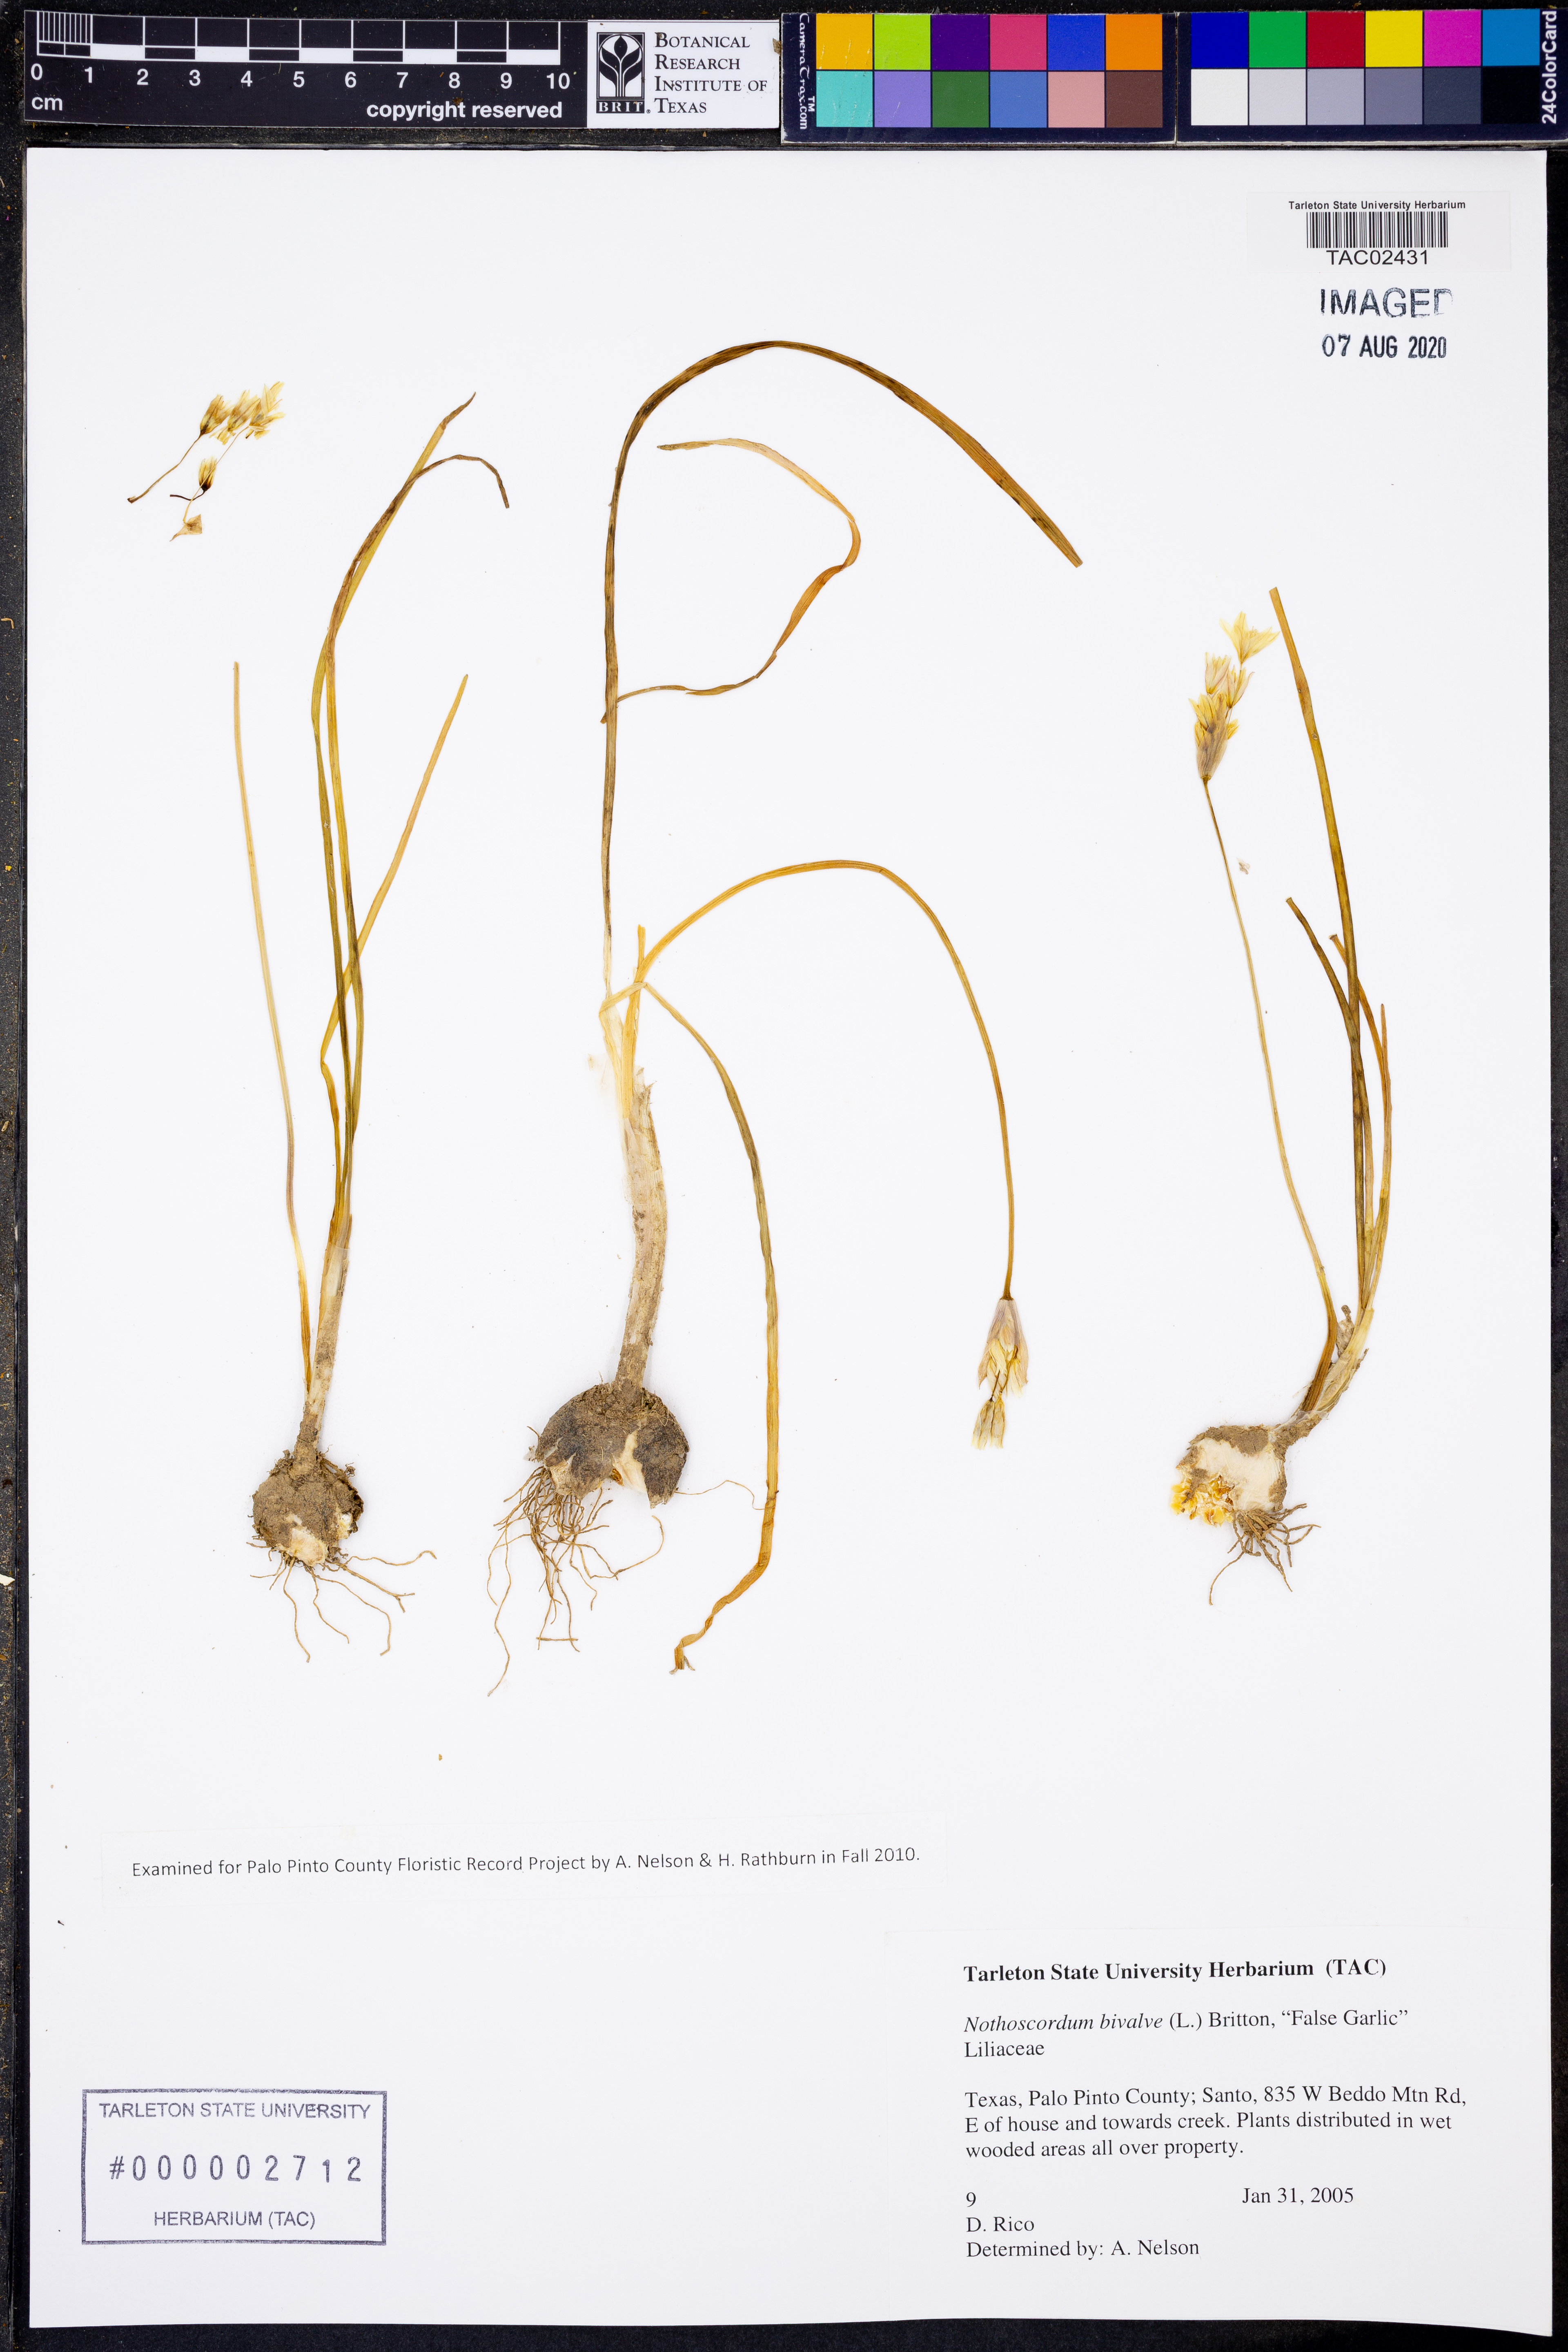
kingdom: Plantae
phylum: Tracheophyta
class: Liliopsida
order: Asparagales
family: Amaryllidaceae
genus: Nothoscordum
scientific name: Nothoscordum bivalve
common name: Crow-poison
